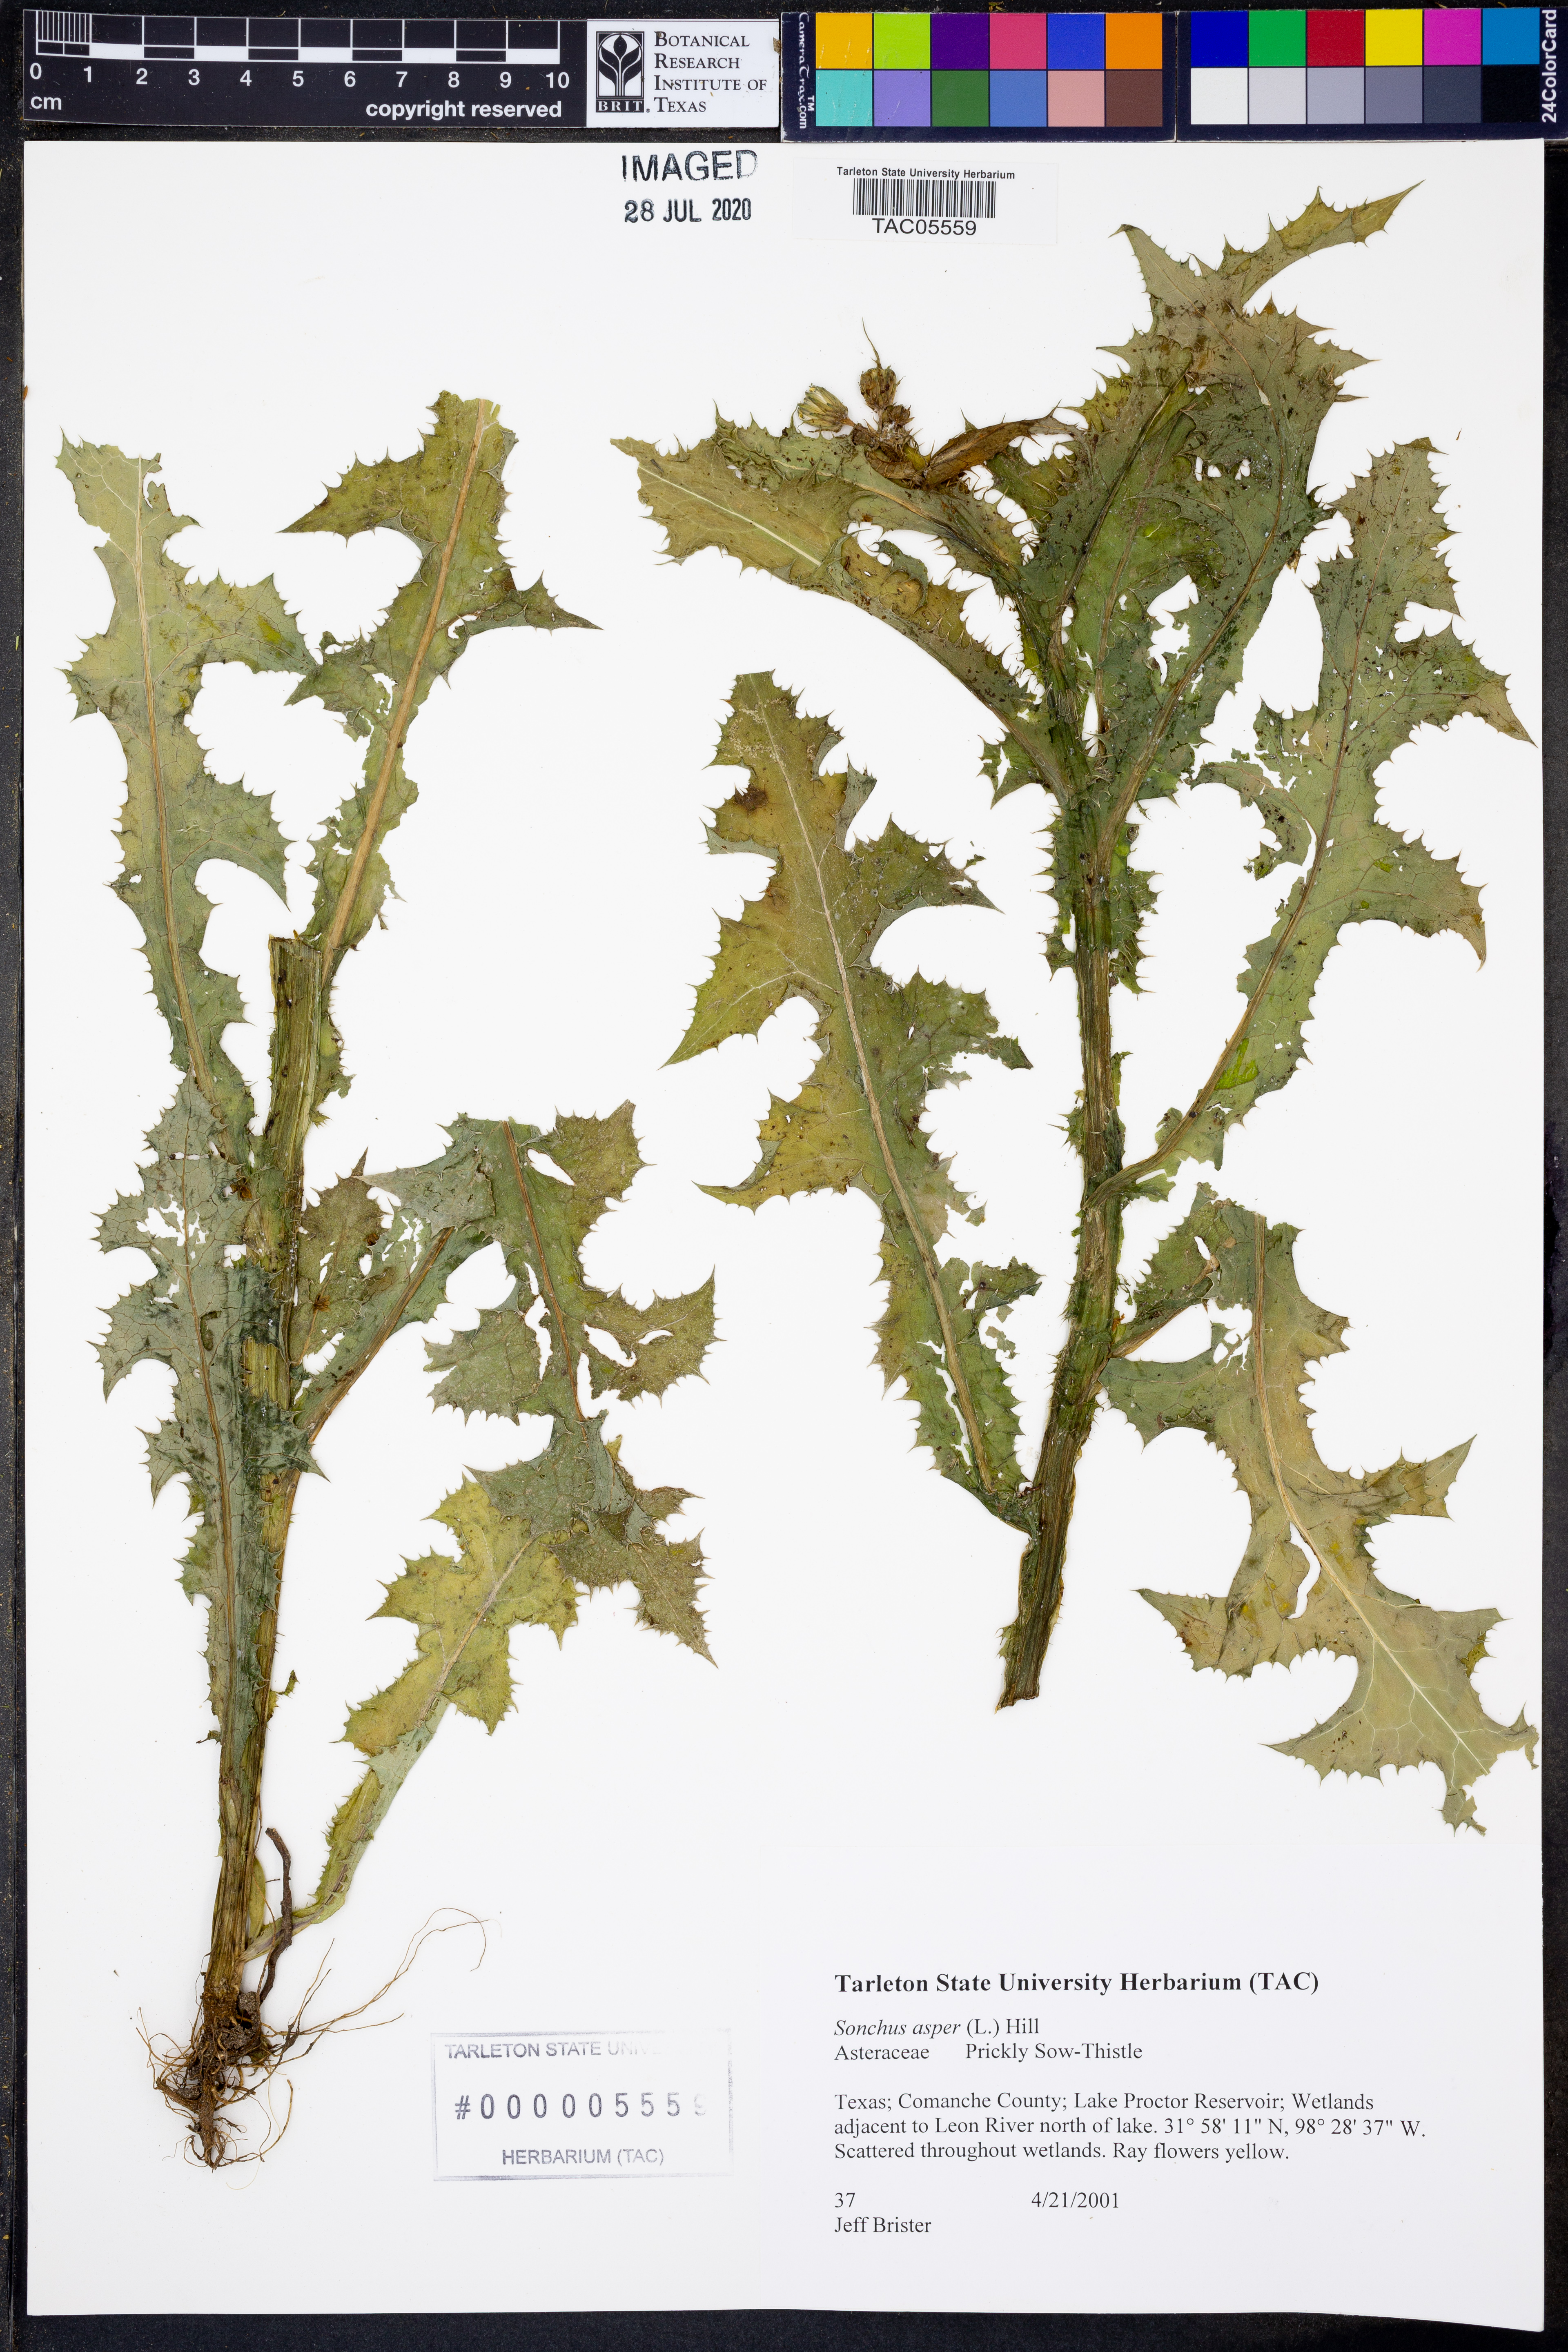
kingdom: Plantae
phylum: Tracheophyta
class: Magnoliopsida
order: Asterales
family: Asteraceae
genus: Sonchus
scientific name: Sonchus asper
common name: Prickly sow-thistle
